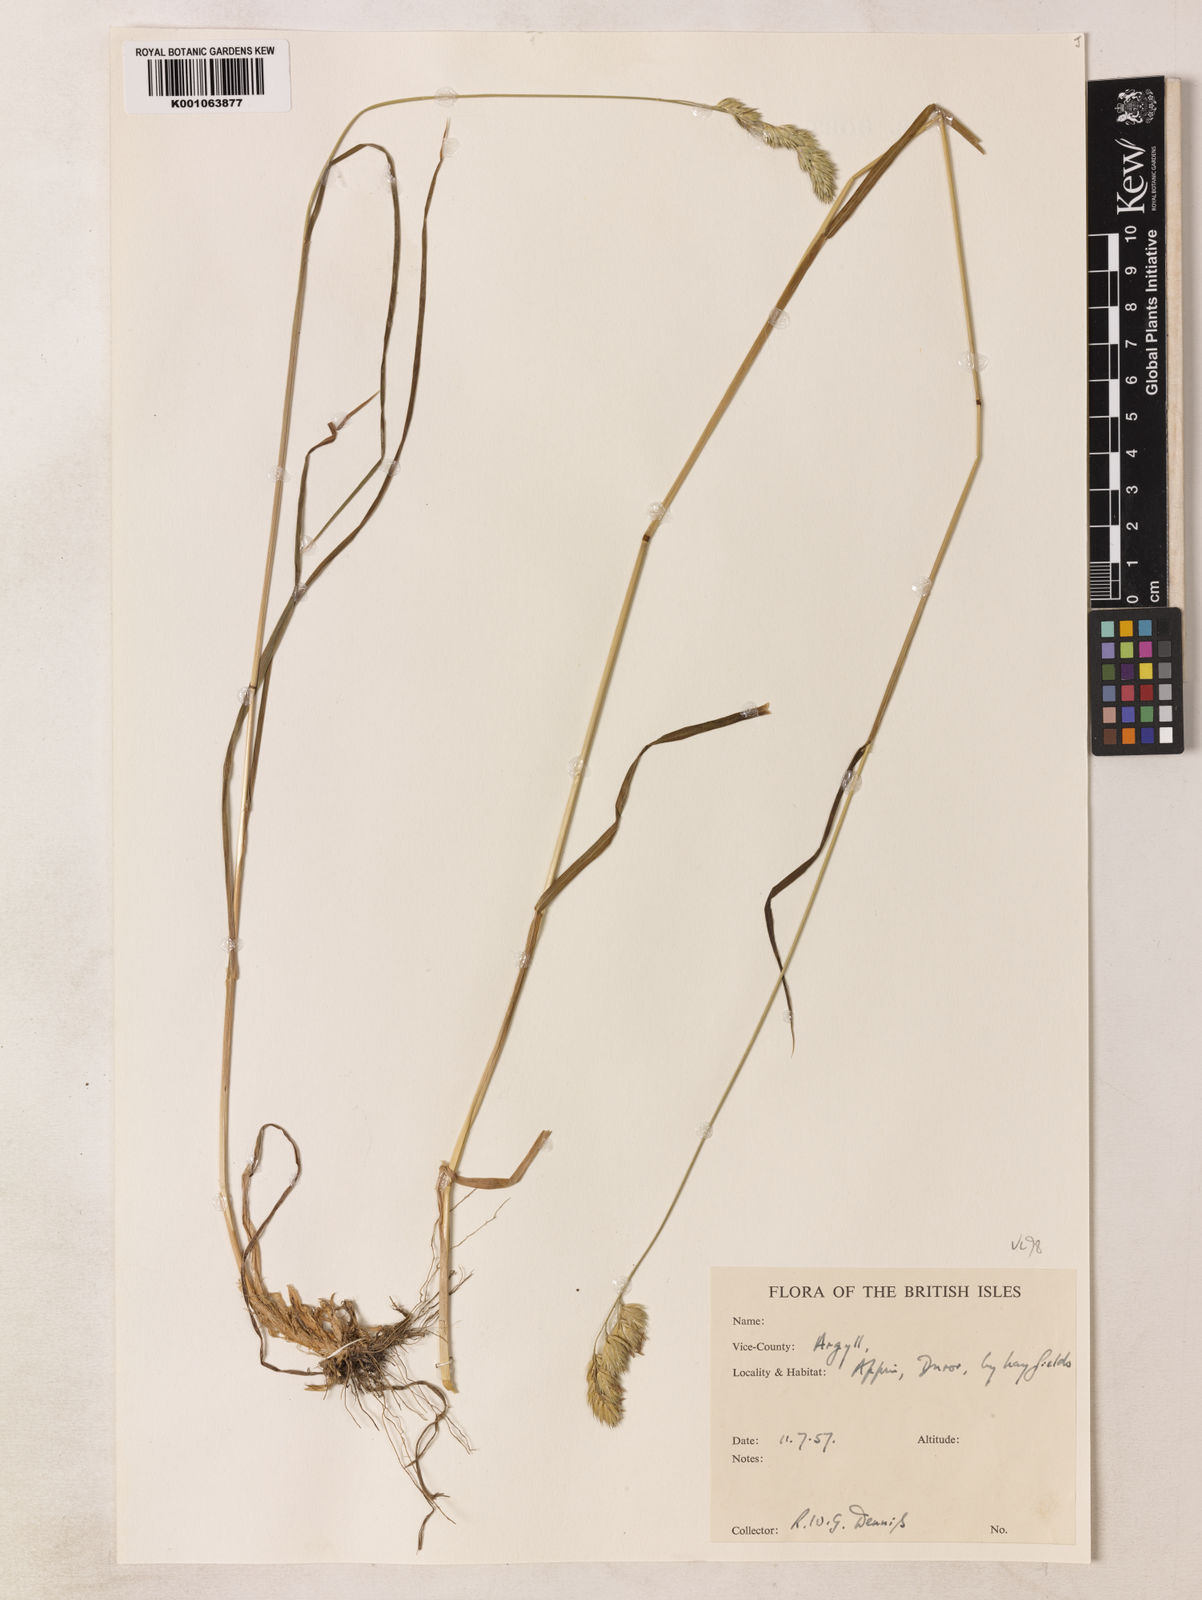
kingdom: Plantae
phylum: Tracheophyta
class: Liliopsida
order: Poales
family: Poaceae
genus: Dactylis
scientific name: Dactylis glomerata
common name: Orchardgrass
